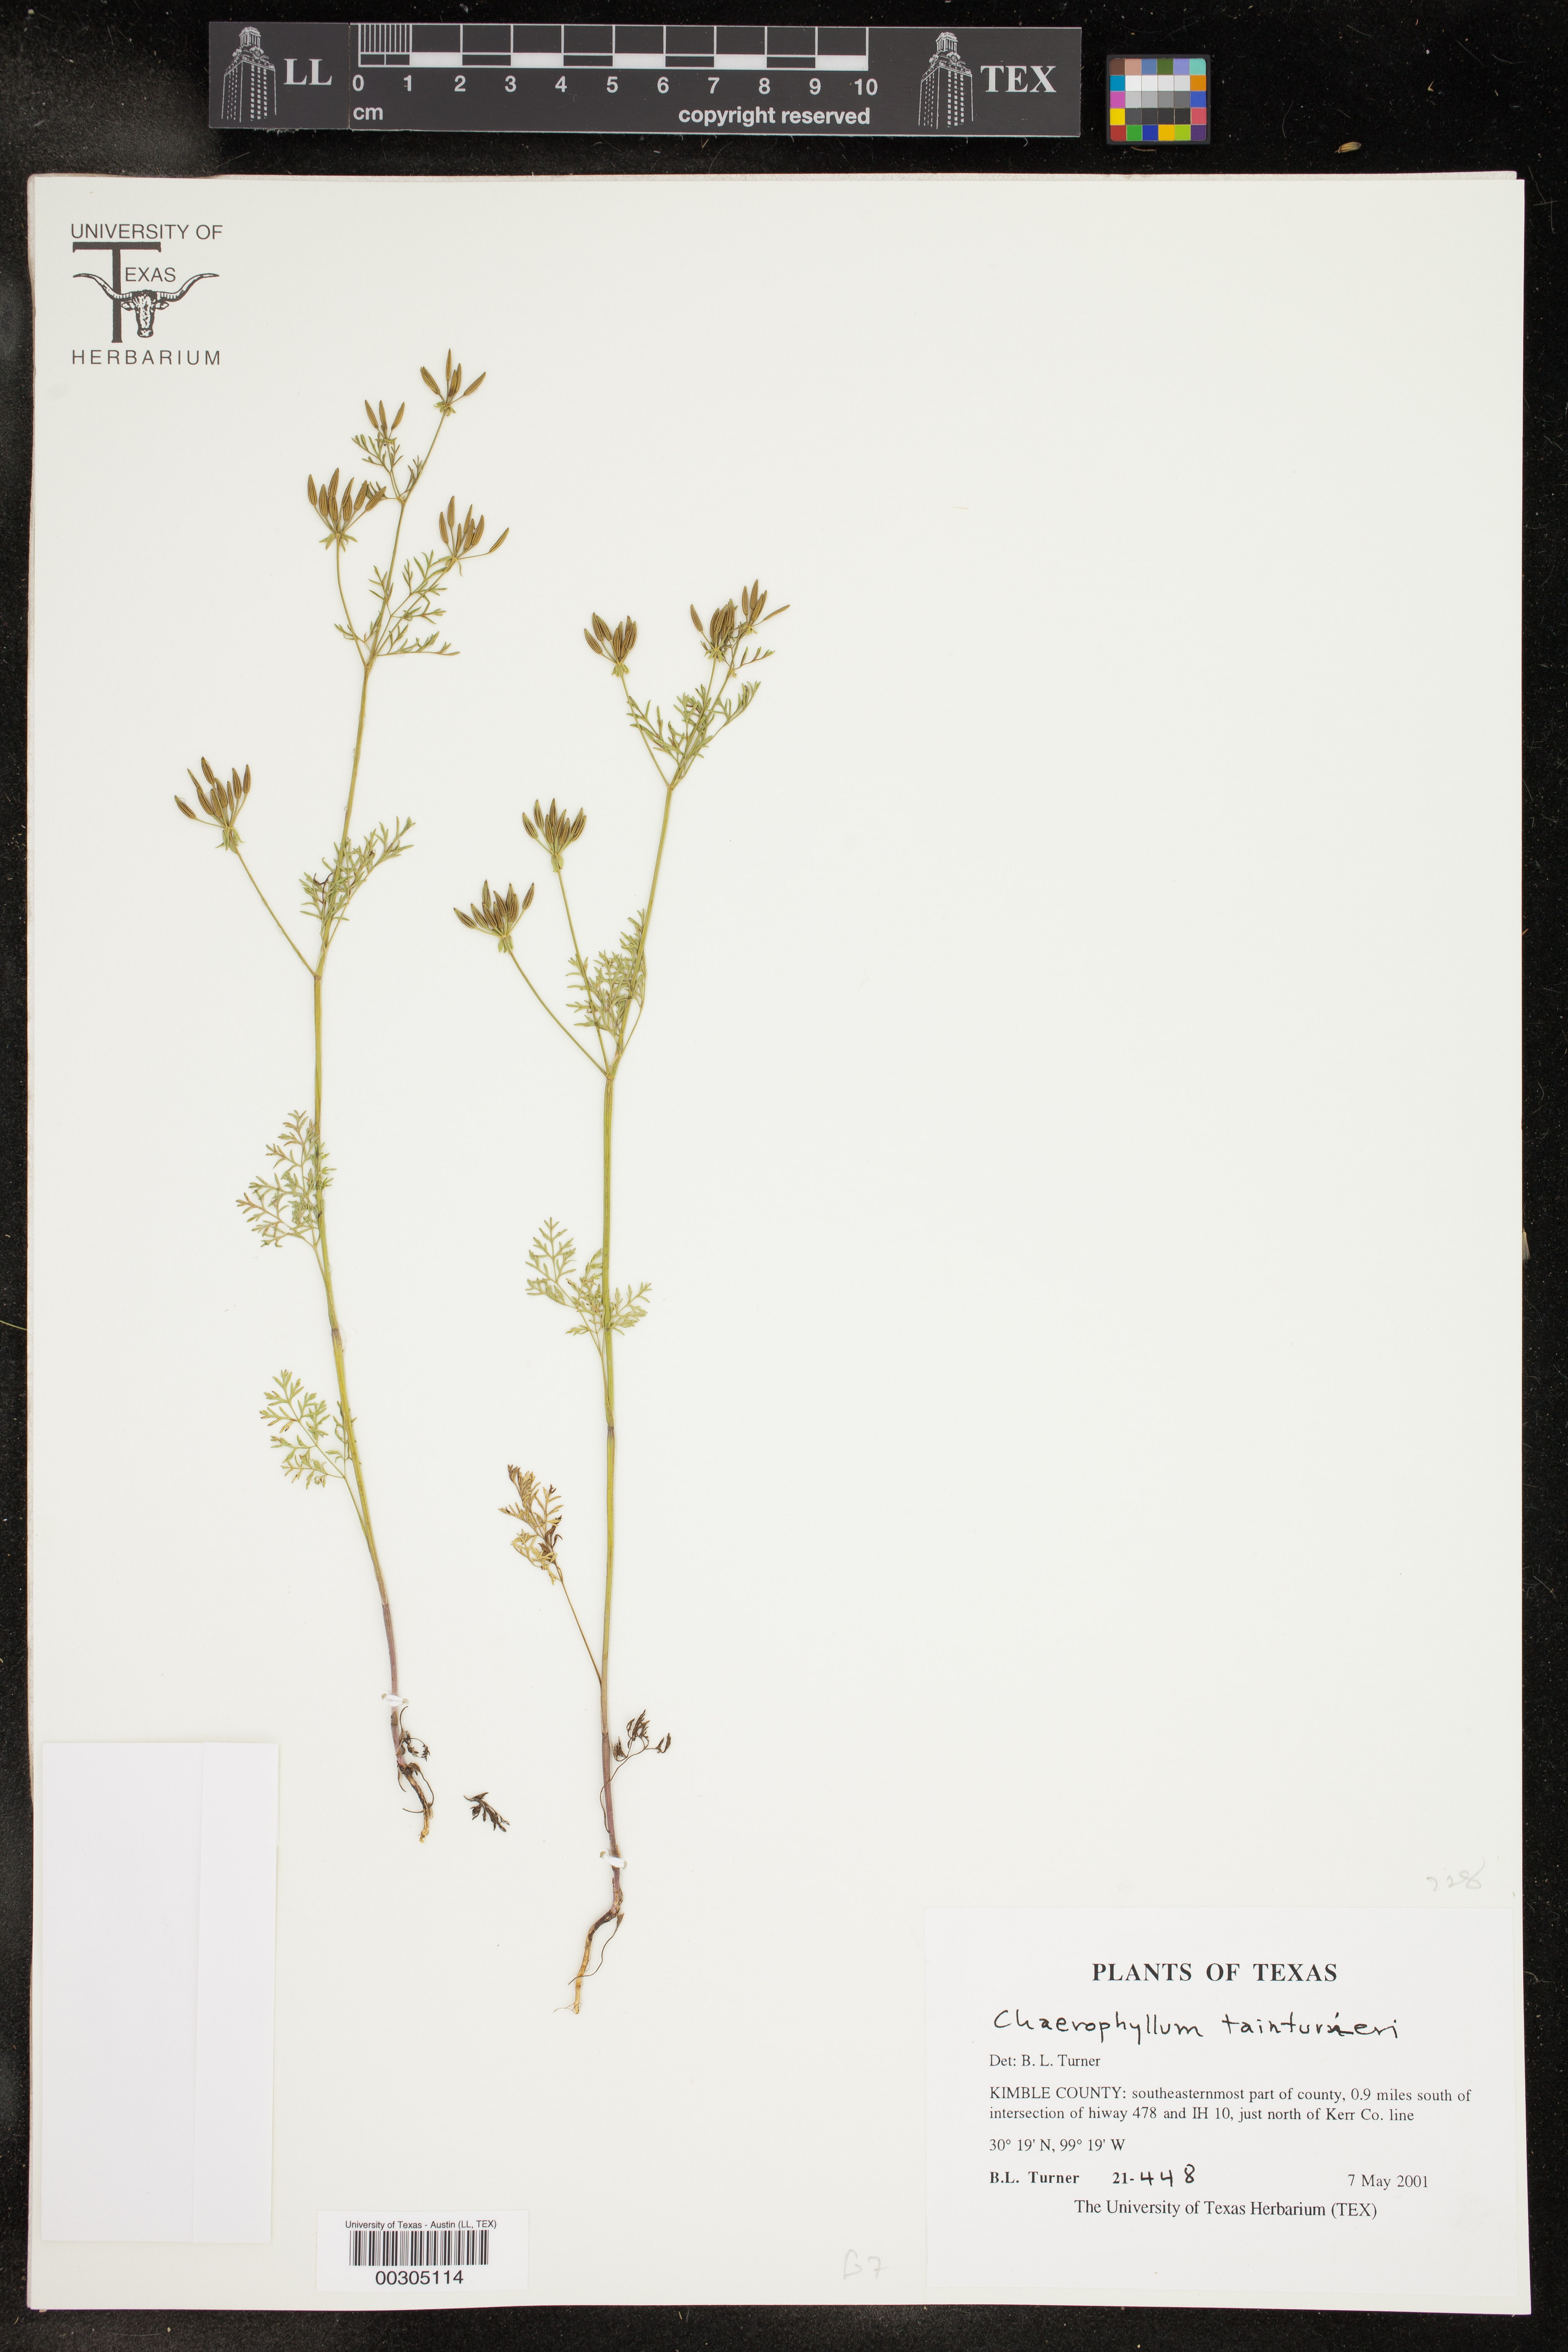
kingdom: Plantae
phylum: Tracheophyta
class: Magnoliopsida
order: Apiales
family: Apiaceae
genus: Chaerophyllum
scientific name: Chaerophyllum tainturieri
